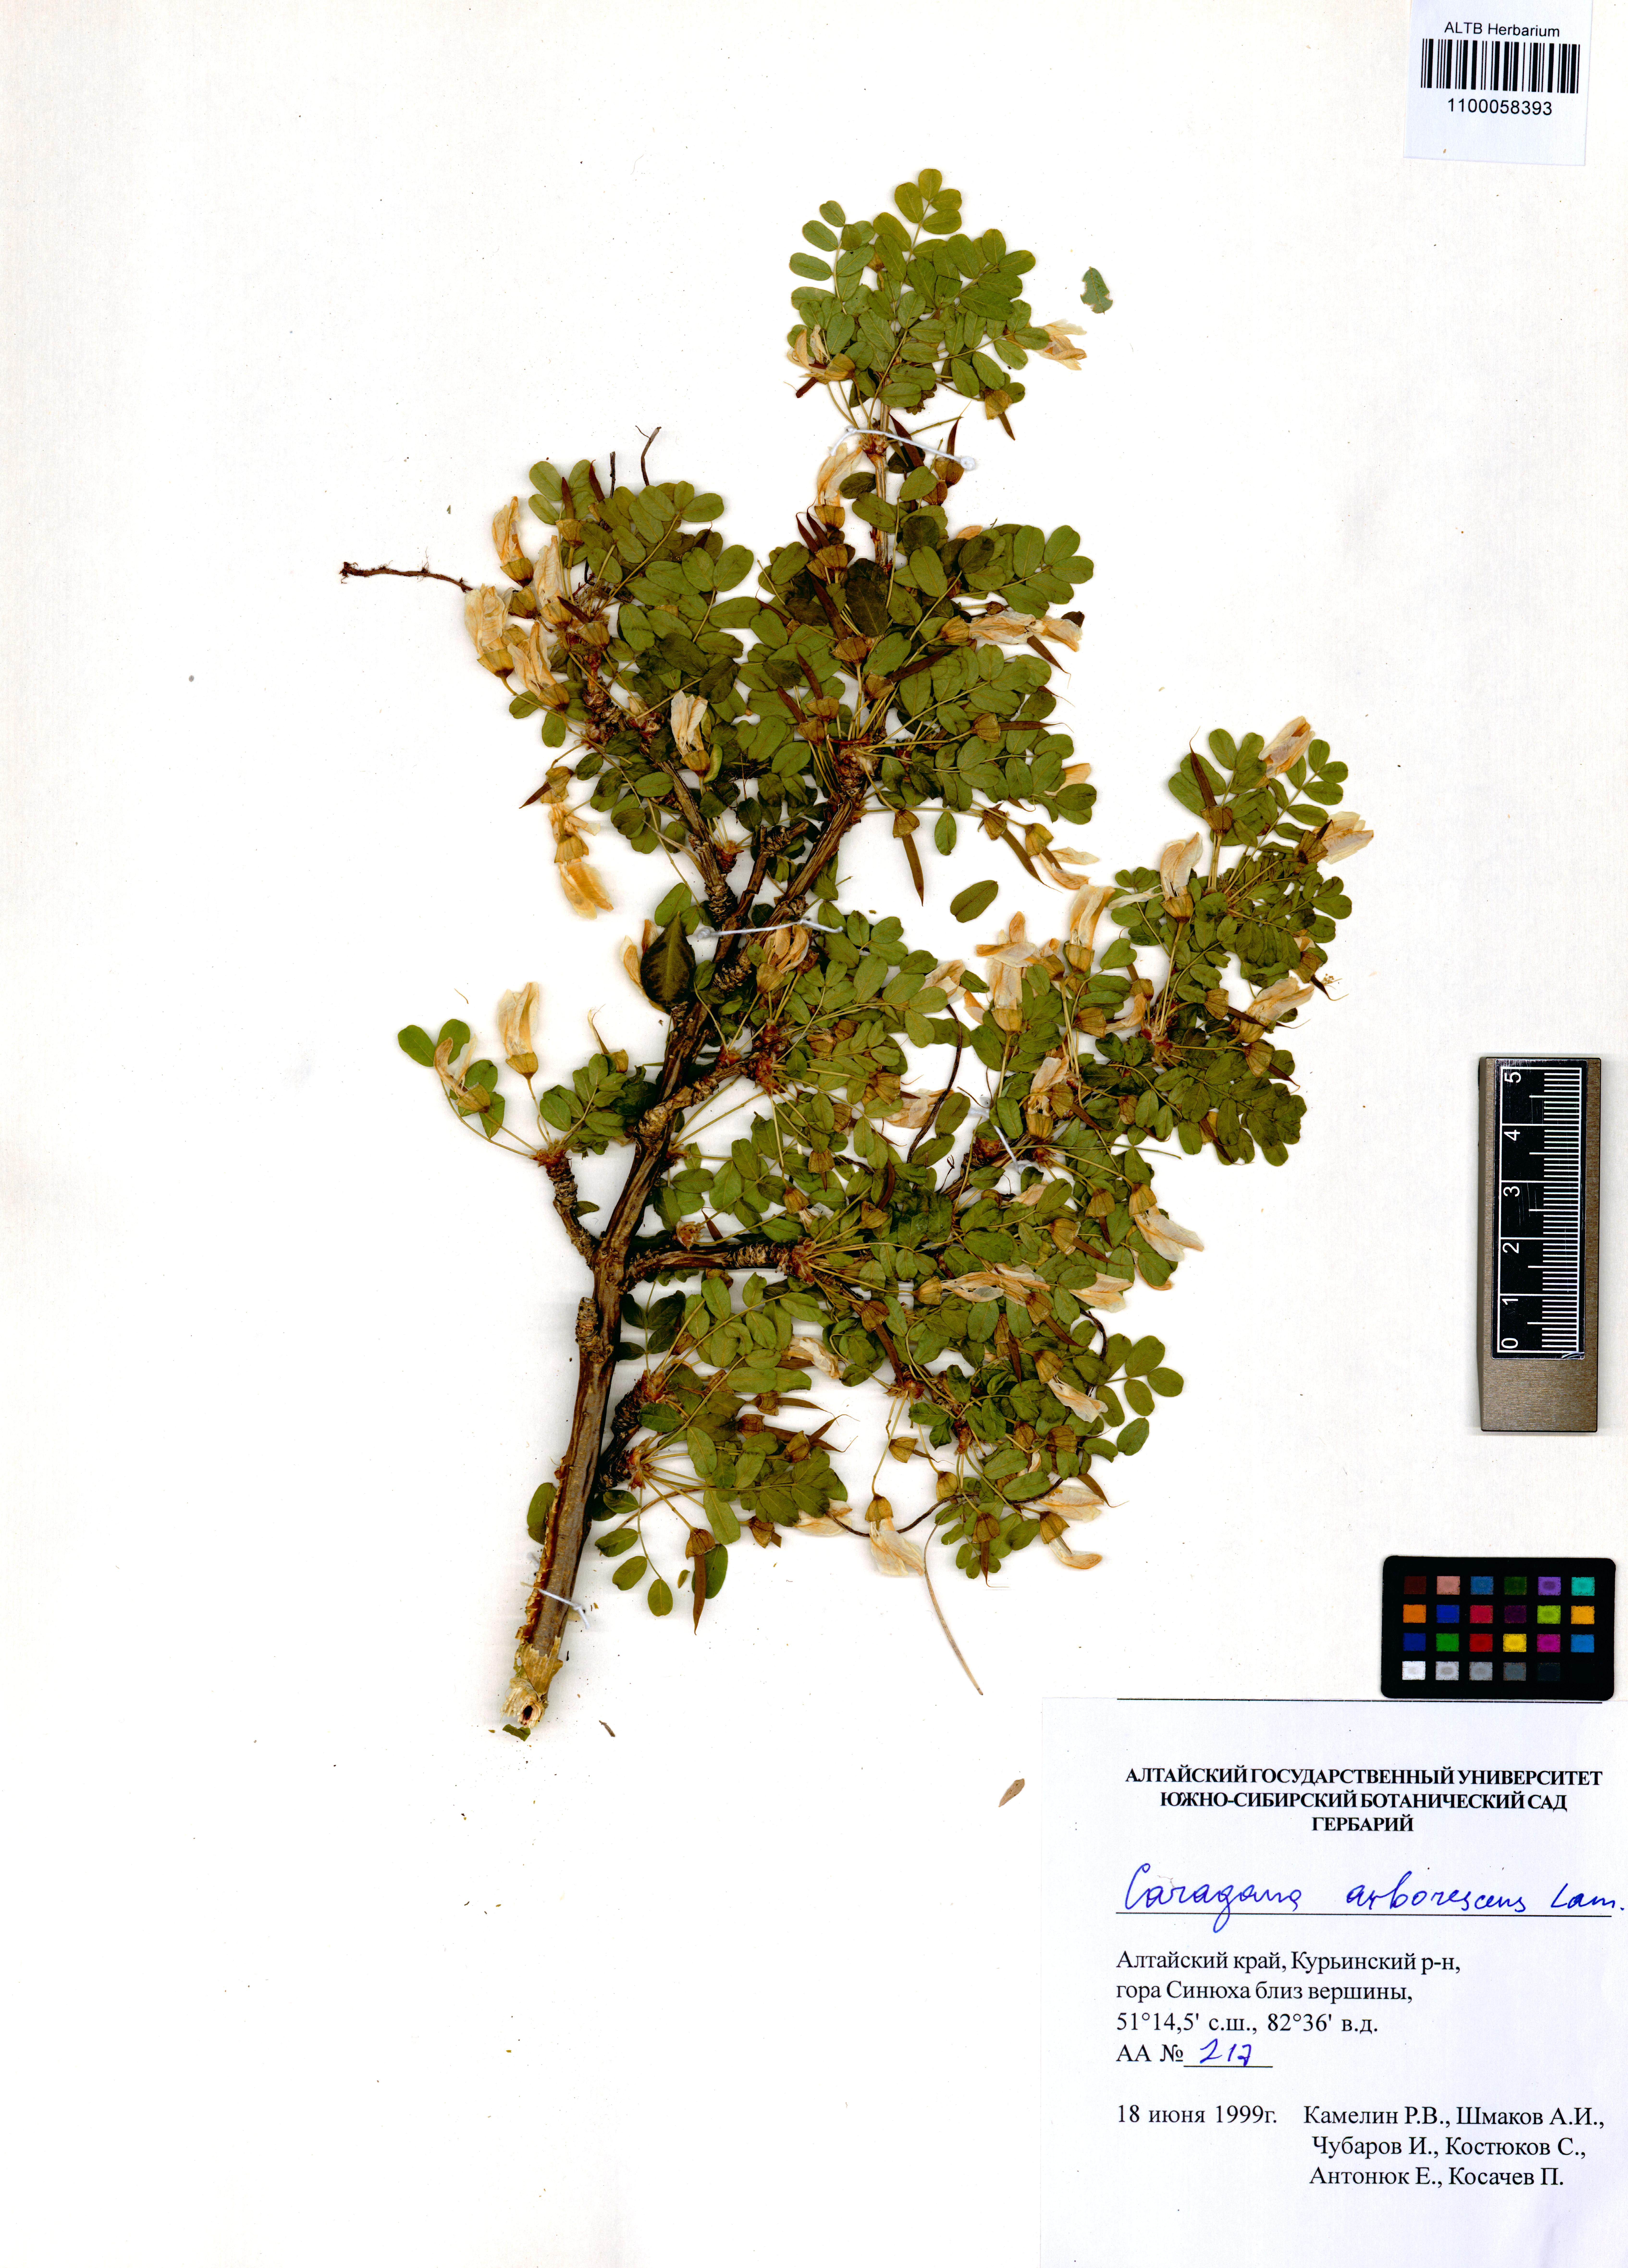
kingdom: Plantae
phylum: Tracheophyta
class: Magnoliopsida
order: Fabales
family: Fabaceae
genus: Caragana
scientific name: Caragana arborescens
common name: Siberian peashrub
